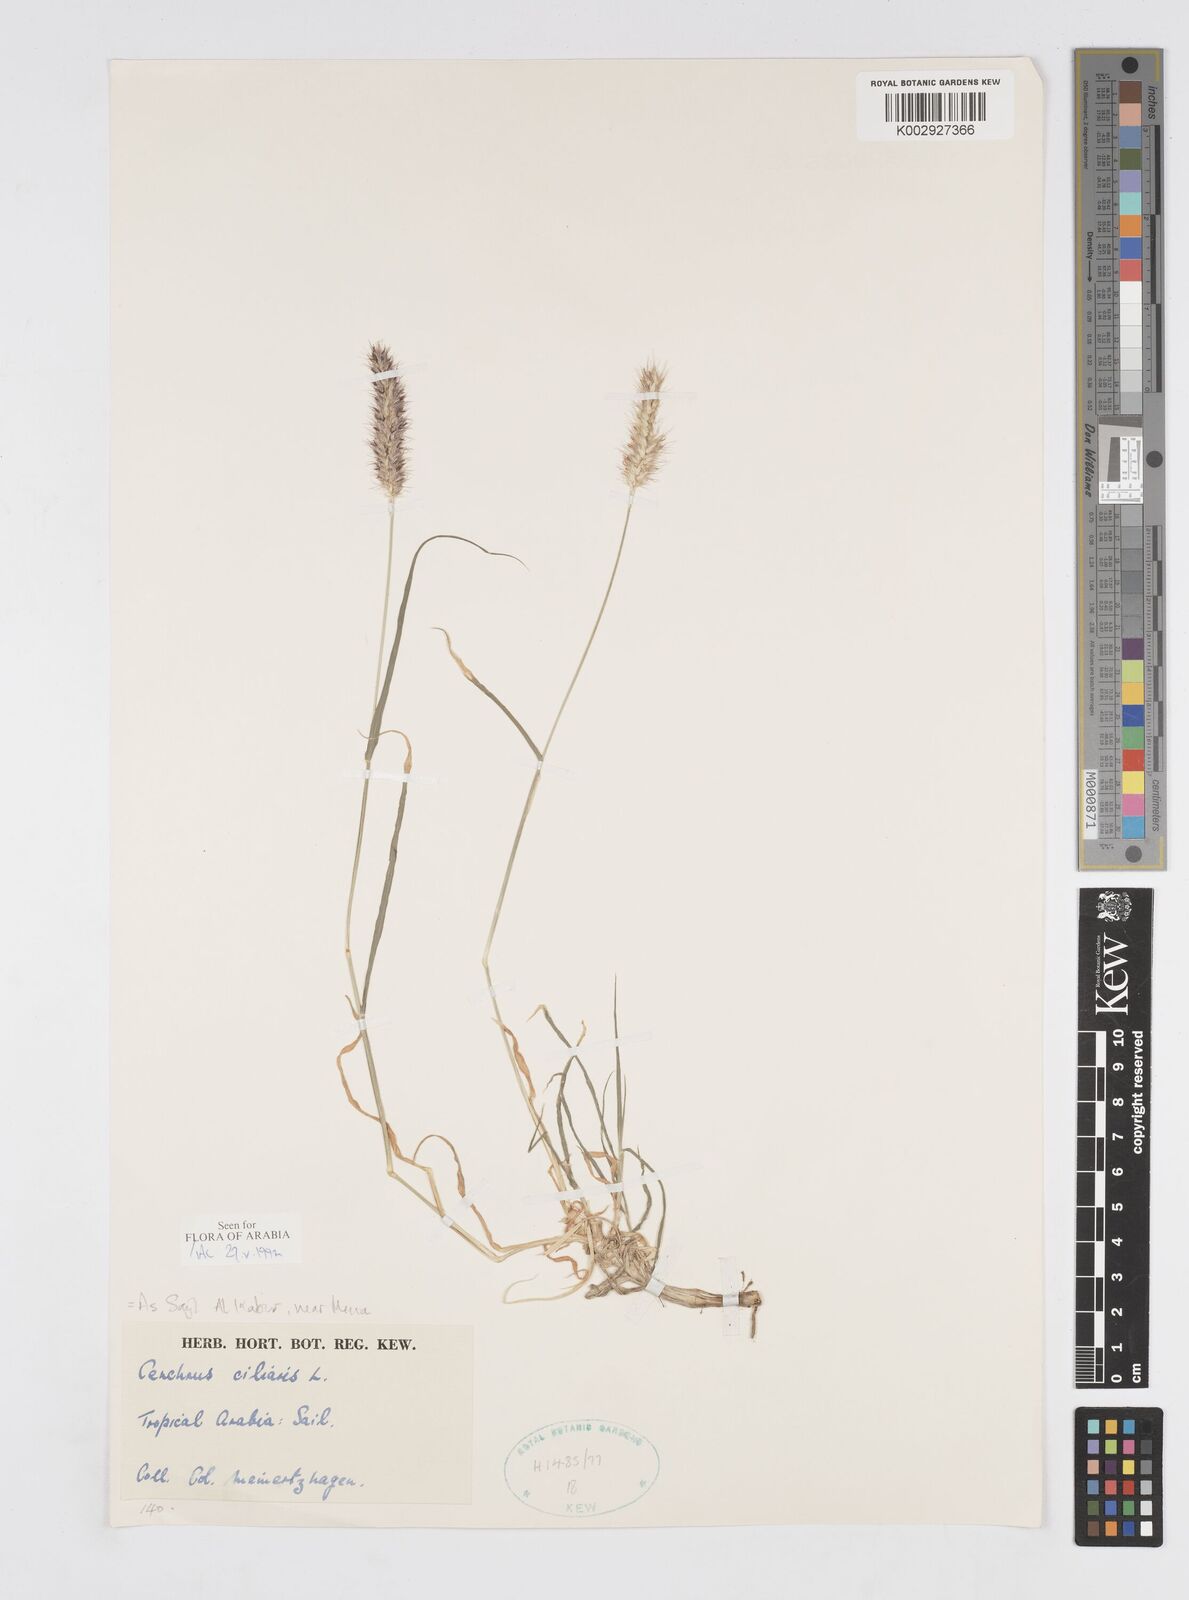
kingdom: Plantae
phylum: Tracheophyta
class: Liliopsida
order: Poales
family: Poaceae
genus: Cenchrus
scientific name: Cenchrus ciliaris
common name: Buffelgrass
